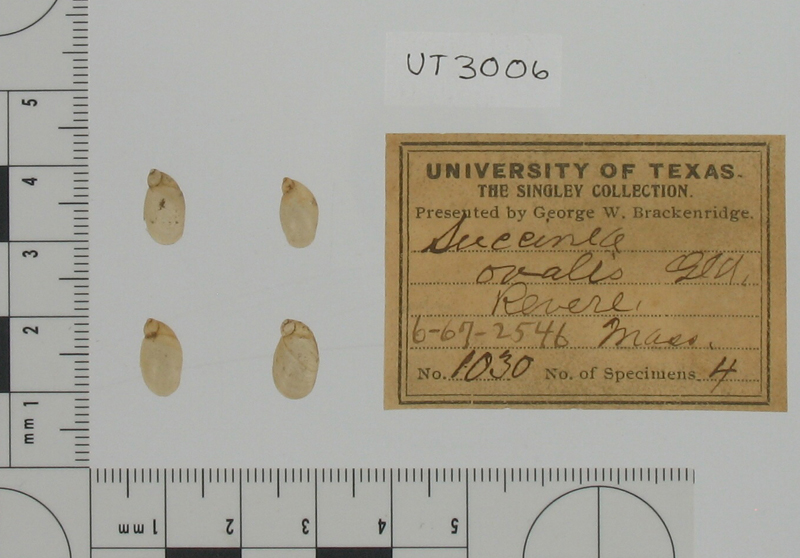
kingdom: Animalia
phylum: Mollusca
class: Gastropoda
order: Stylommatophora
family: Succineidae
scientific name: Succineidae
